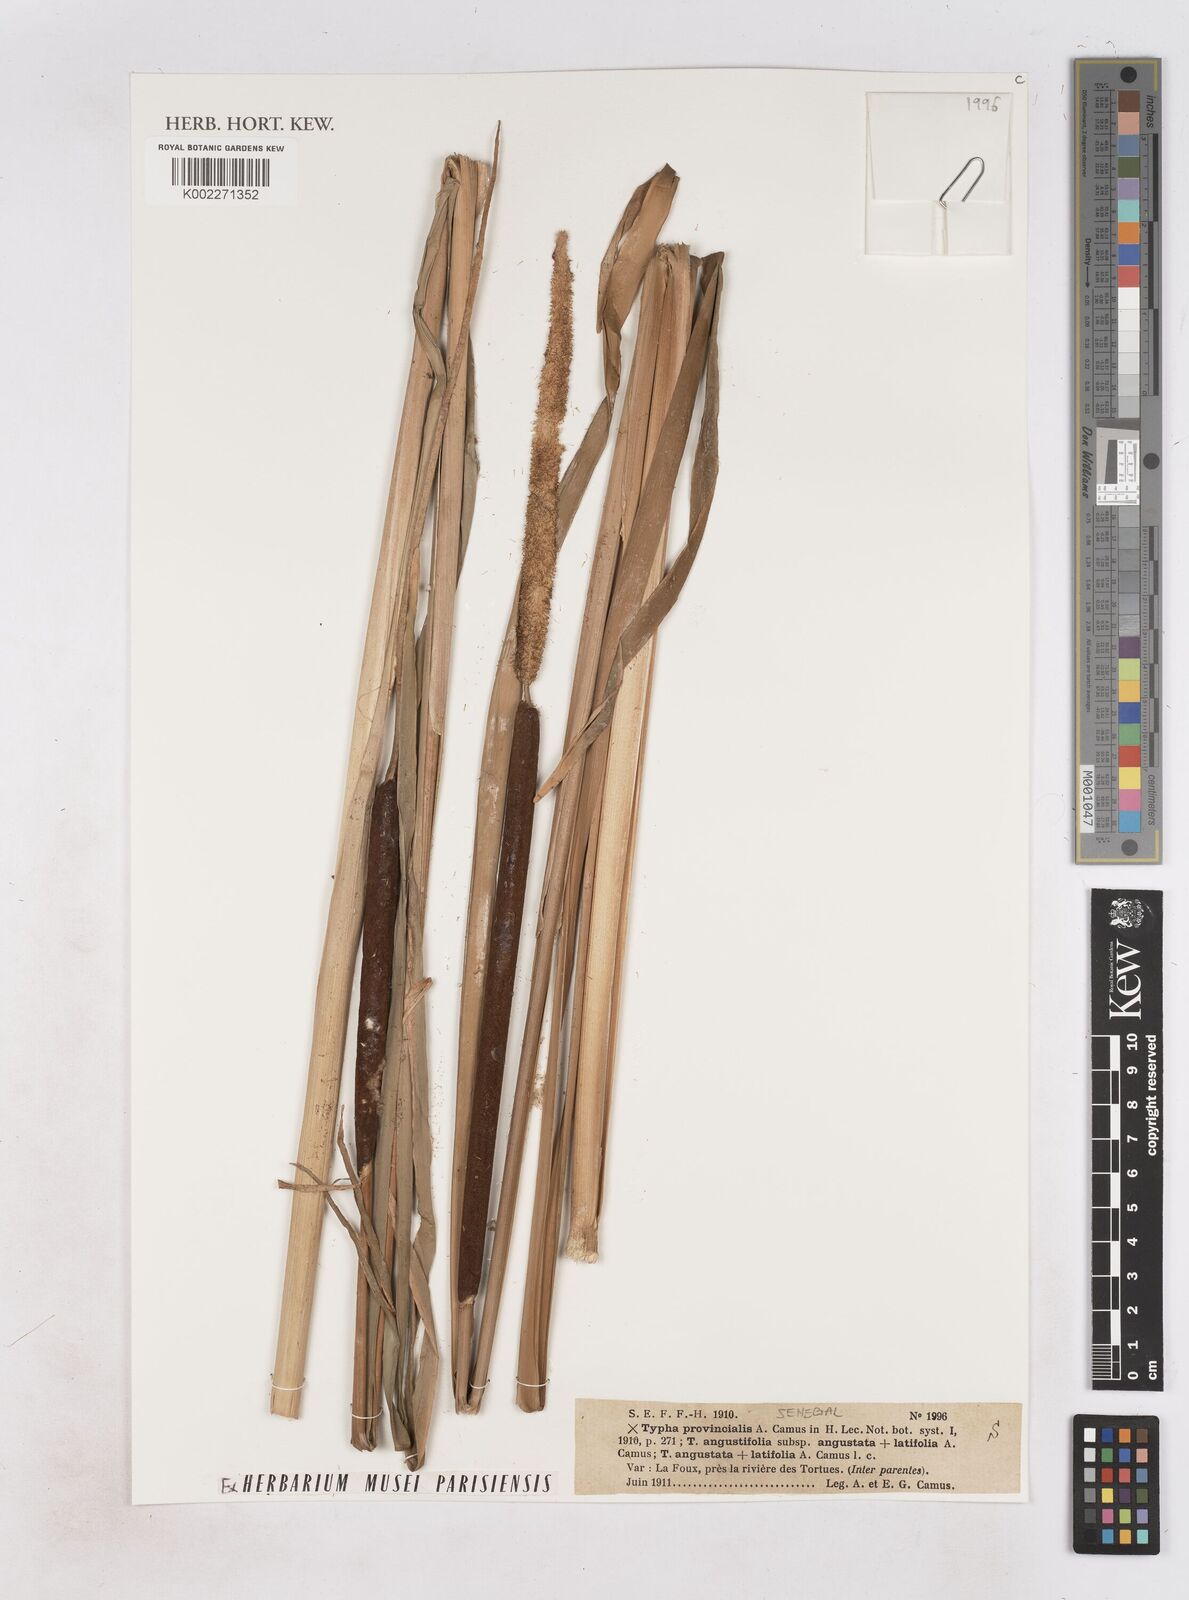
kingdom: Plantae
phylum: Tracheophyta
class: Liliopsida
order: Poales
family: Typhaceae
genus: Typha
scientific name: Typha provincialis
